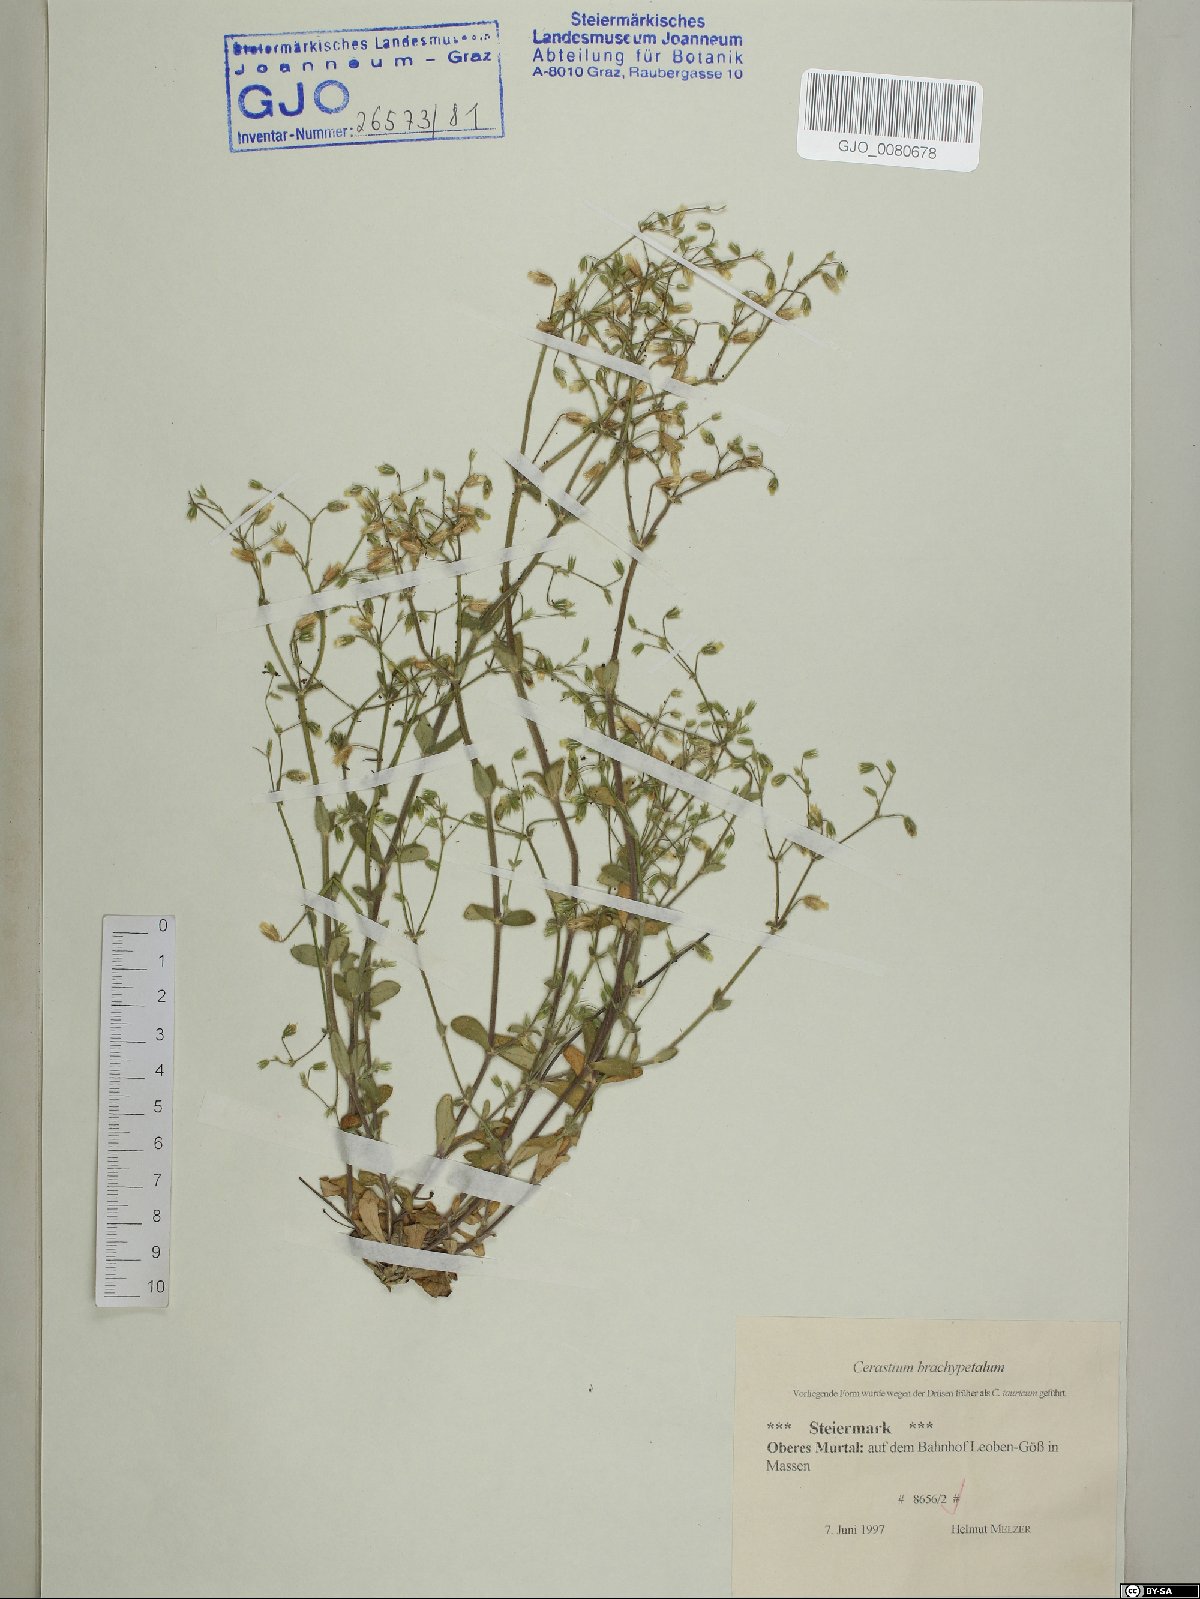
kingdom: Plantae
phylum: Tracheophyta
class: Magnoliopsida
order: Caryophyllales
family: Caryophyllaceae
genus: Cerastium
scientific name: Cerastium brachypetalum
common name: Grey mouse-ear
